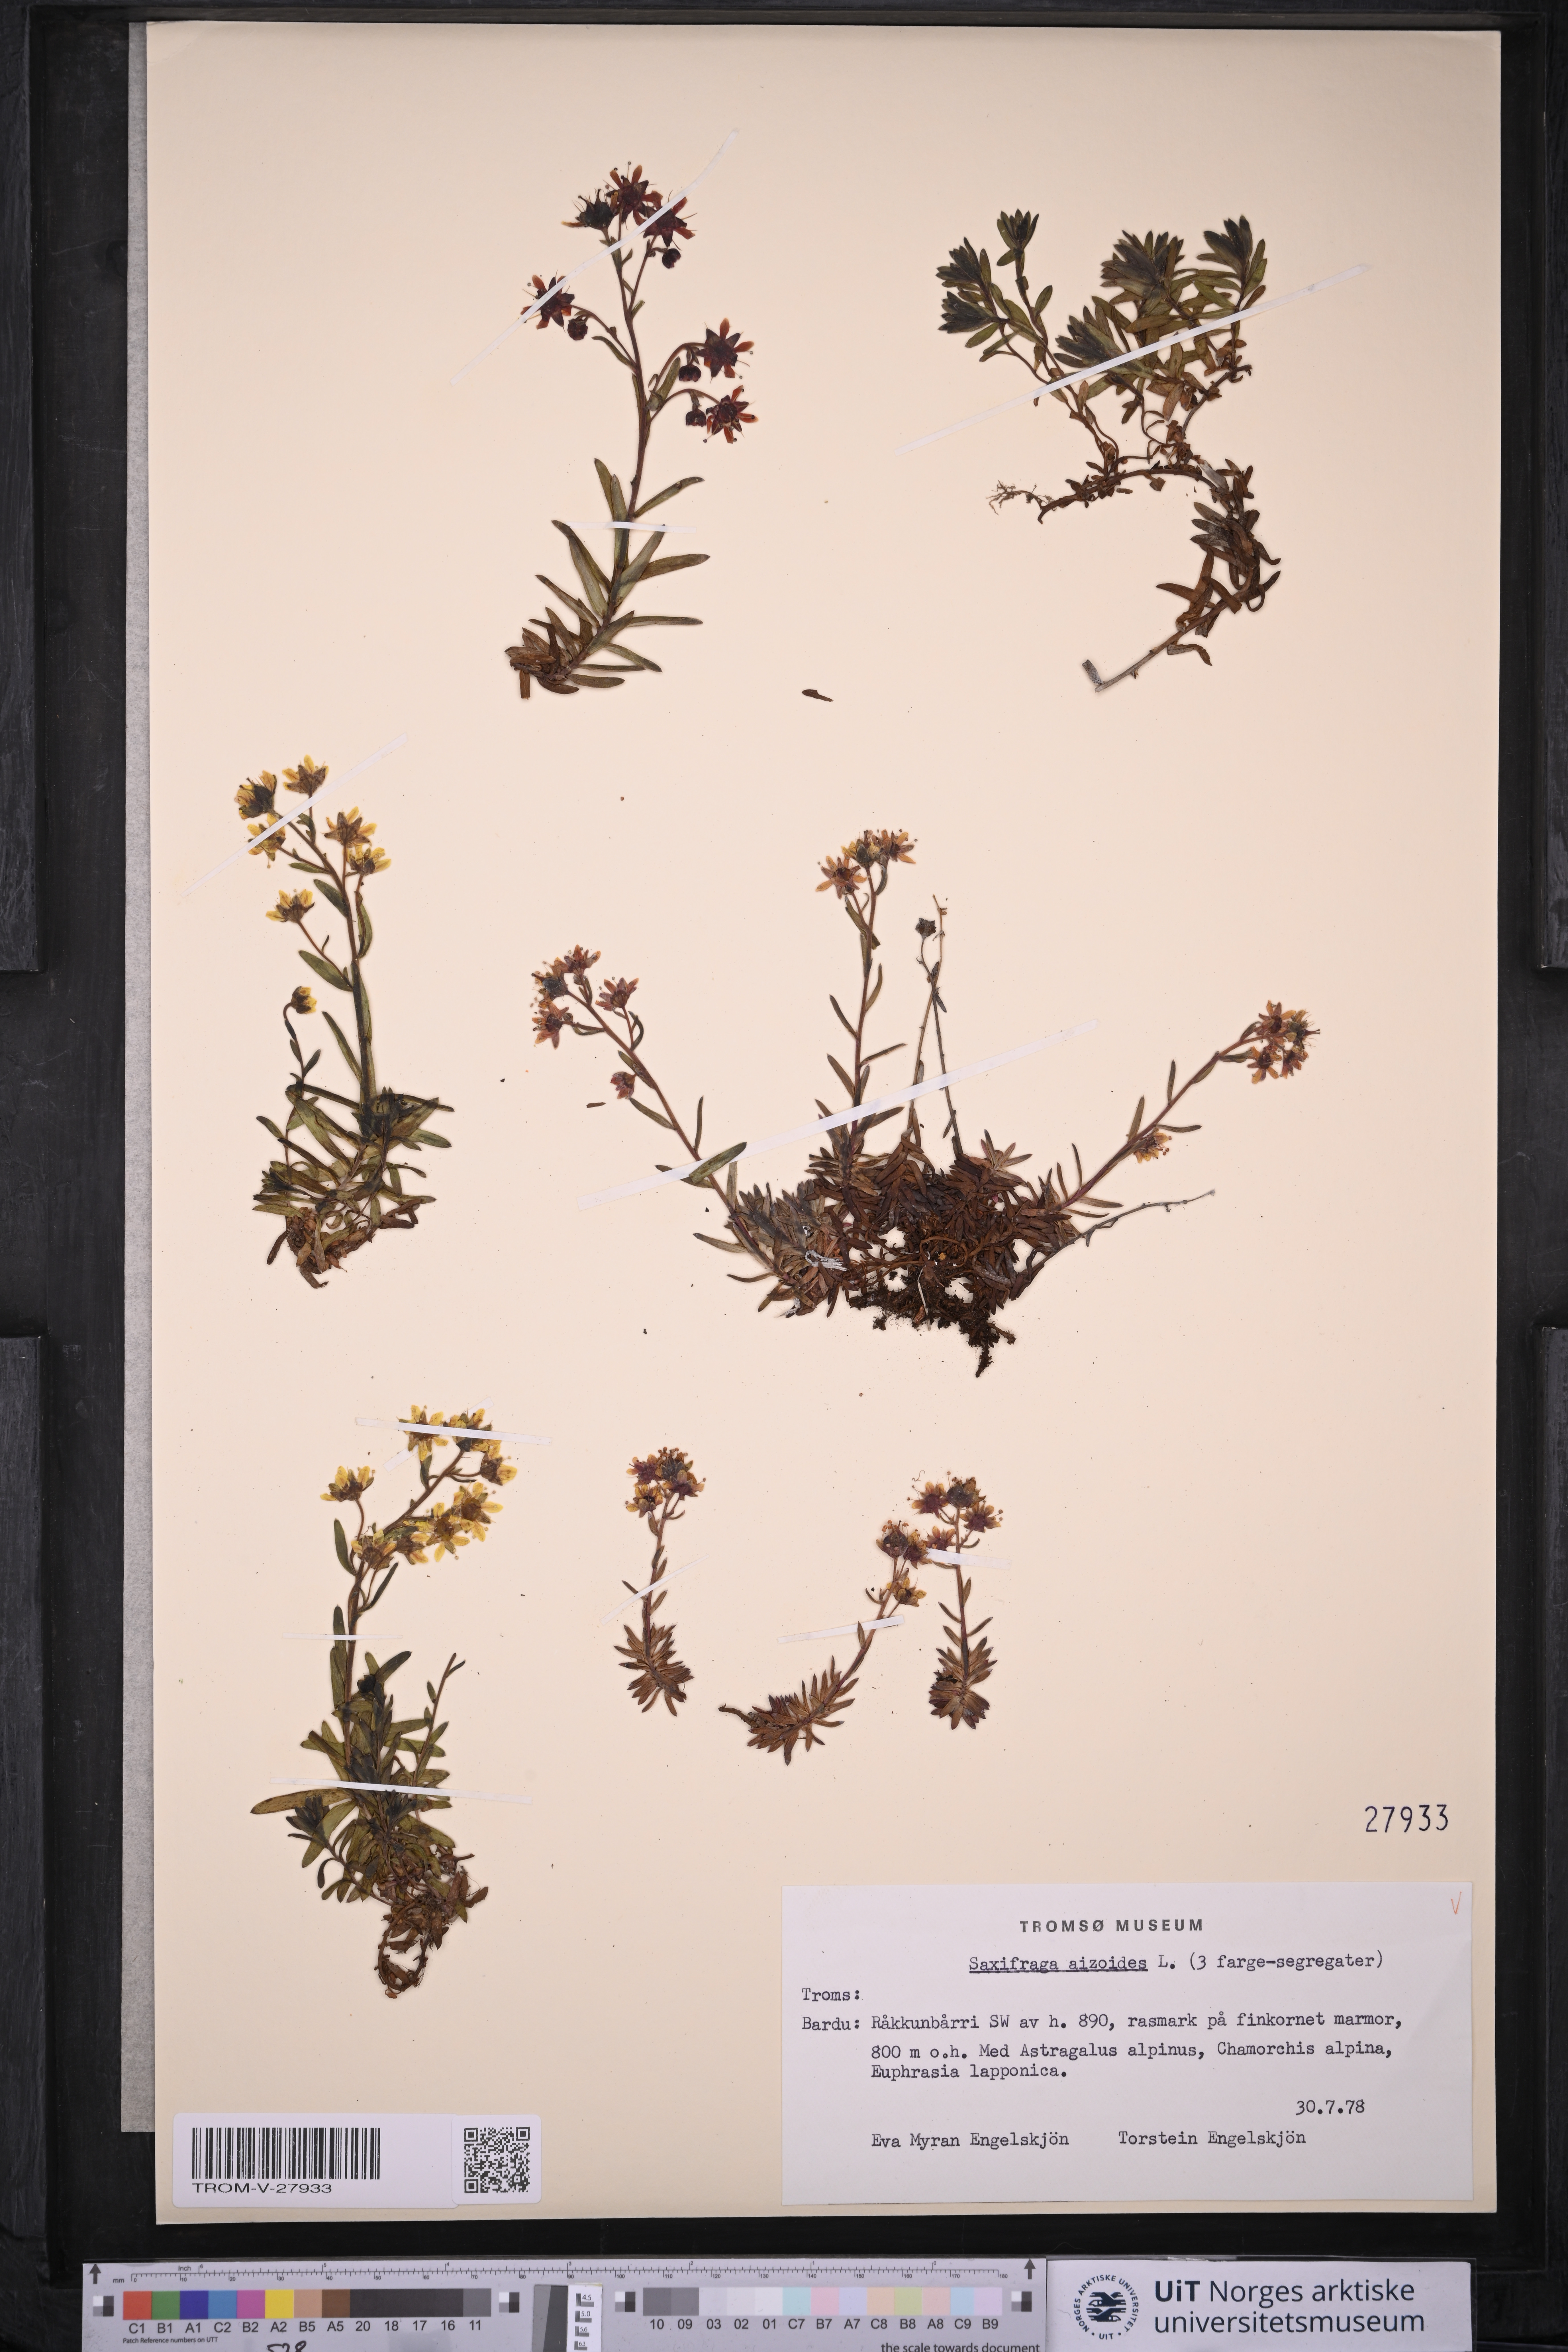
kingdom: Plantae
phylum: Tracheophyta
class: Magnoliopsida
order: Saxifragales
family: Saxifragaceae
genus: Saxifraga
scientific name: Saxifraga aizoides
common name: Yellow mountain saxifrage
